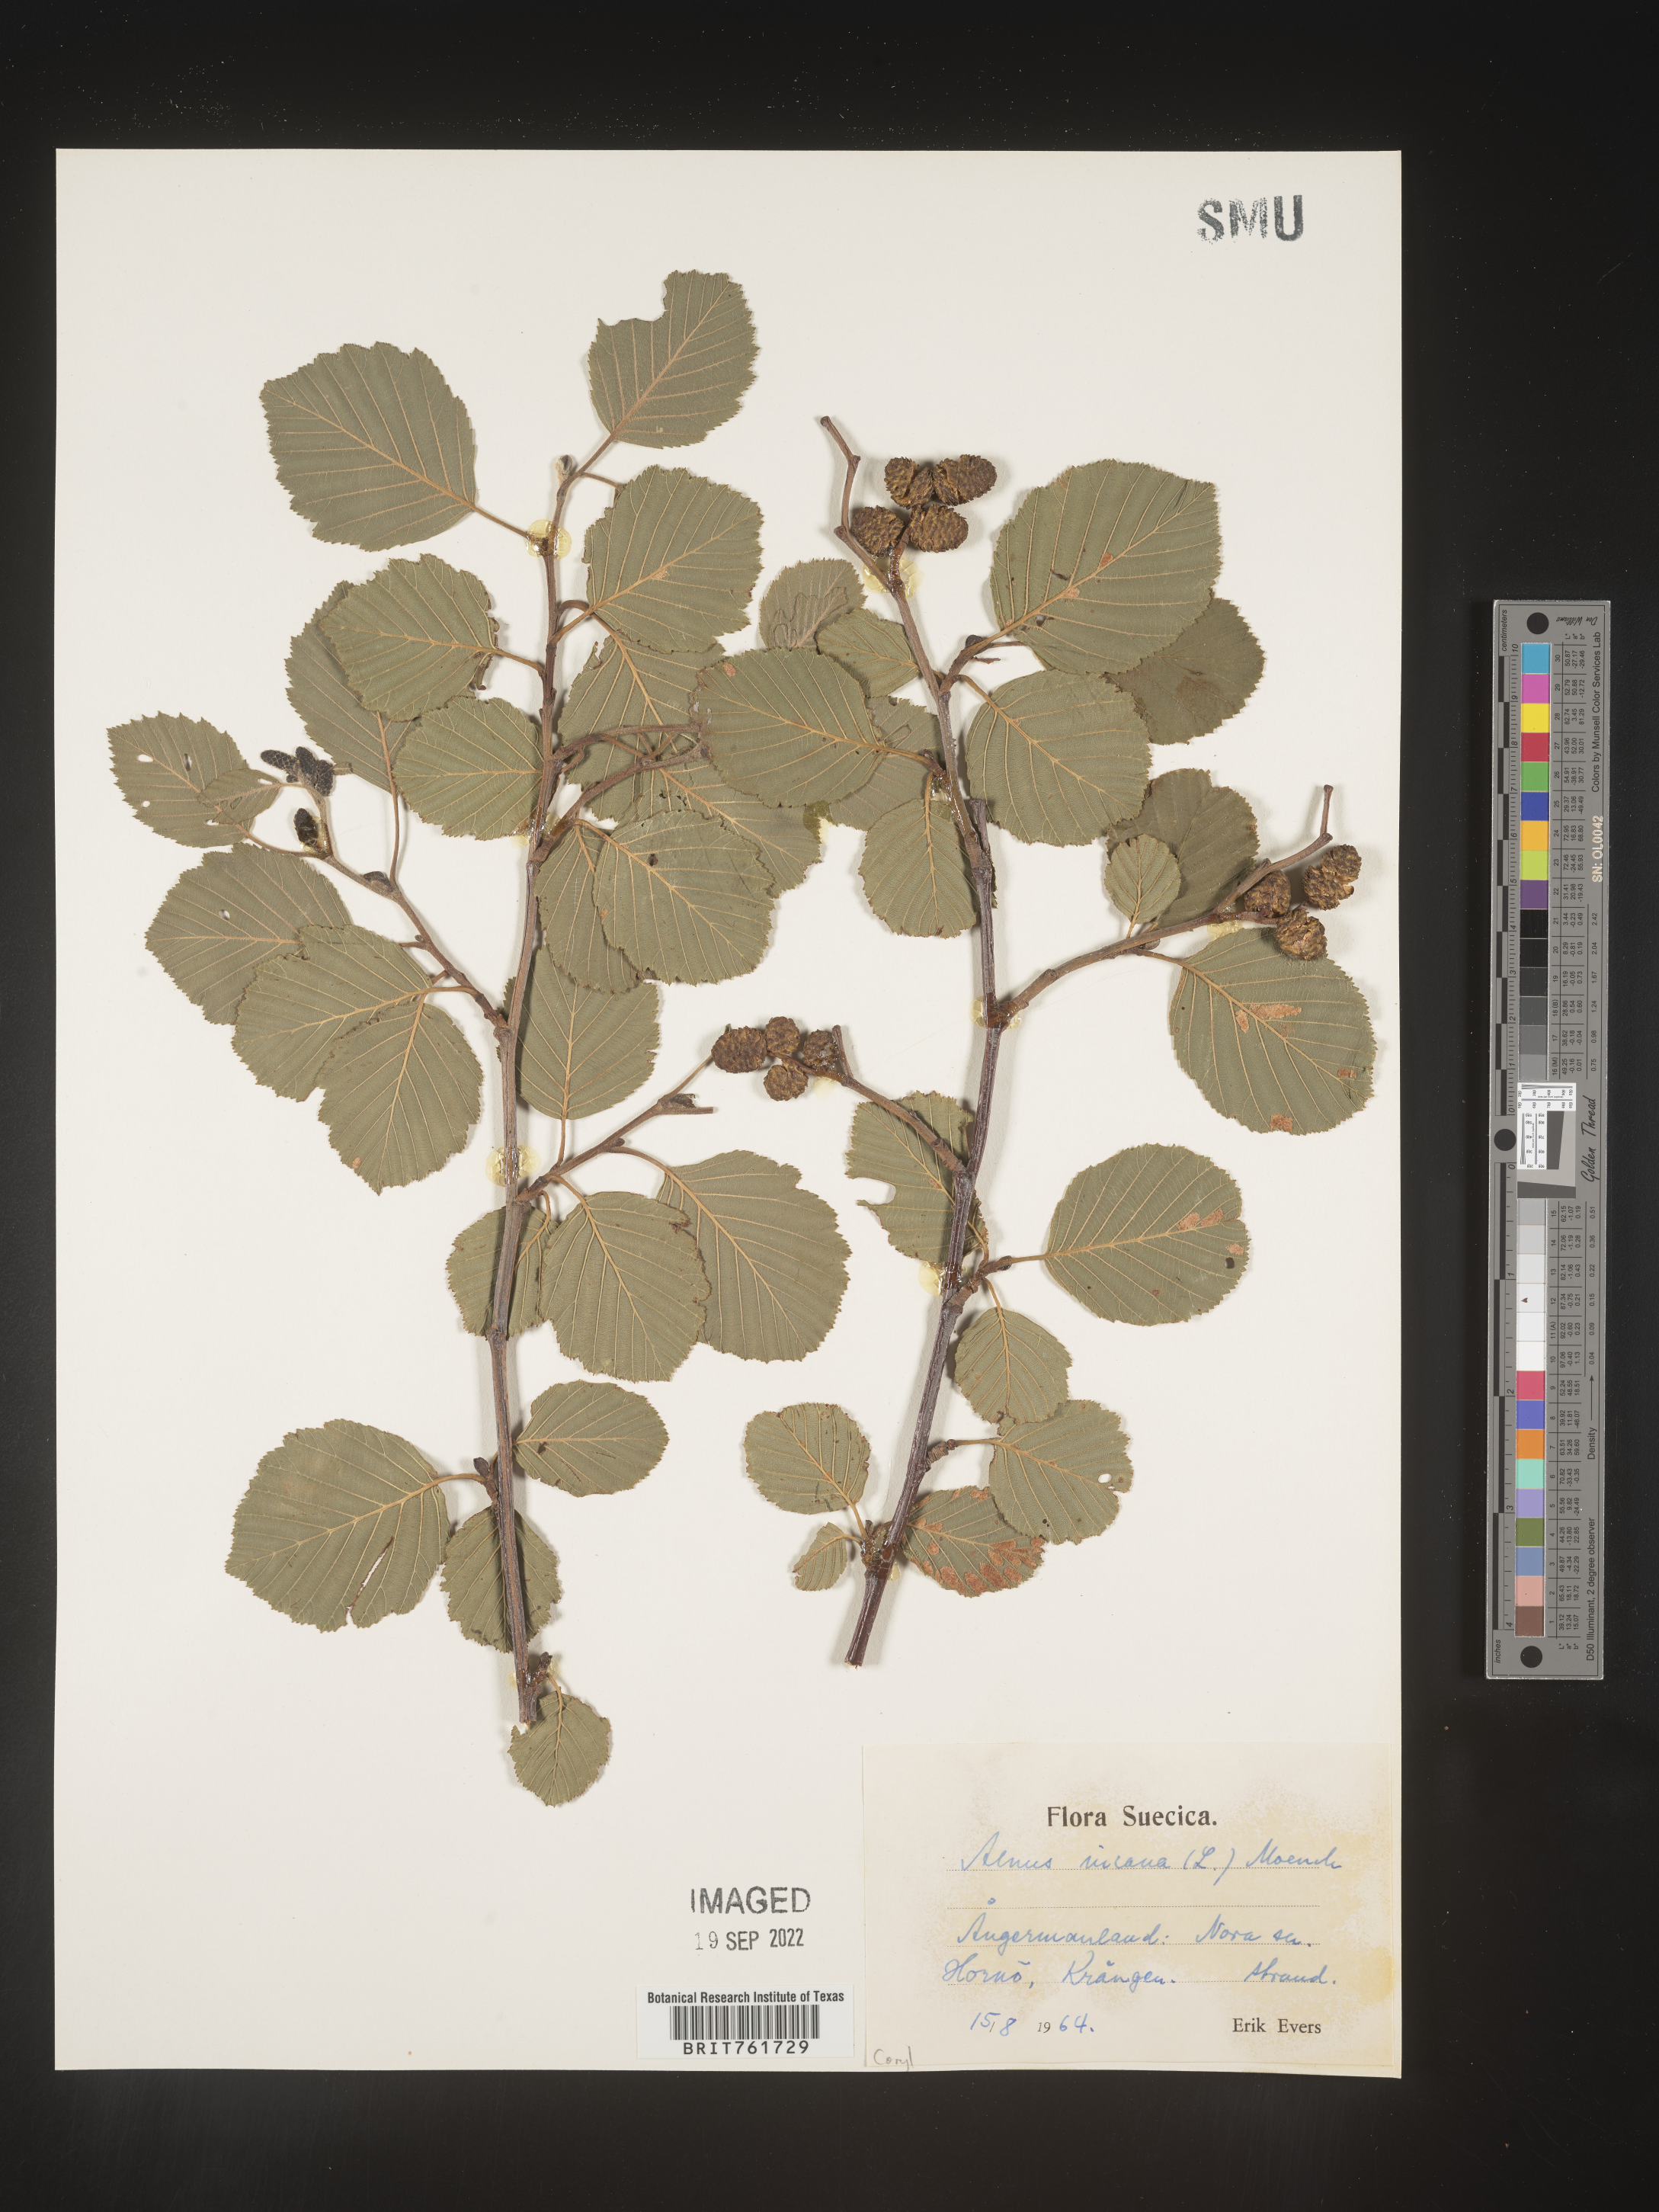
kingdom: Plantae
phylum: Tracheophyta
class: Magnoliopsida
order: Fagales
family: Betulaceae
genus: Alnus
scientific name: Alnus
